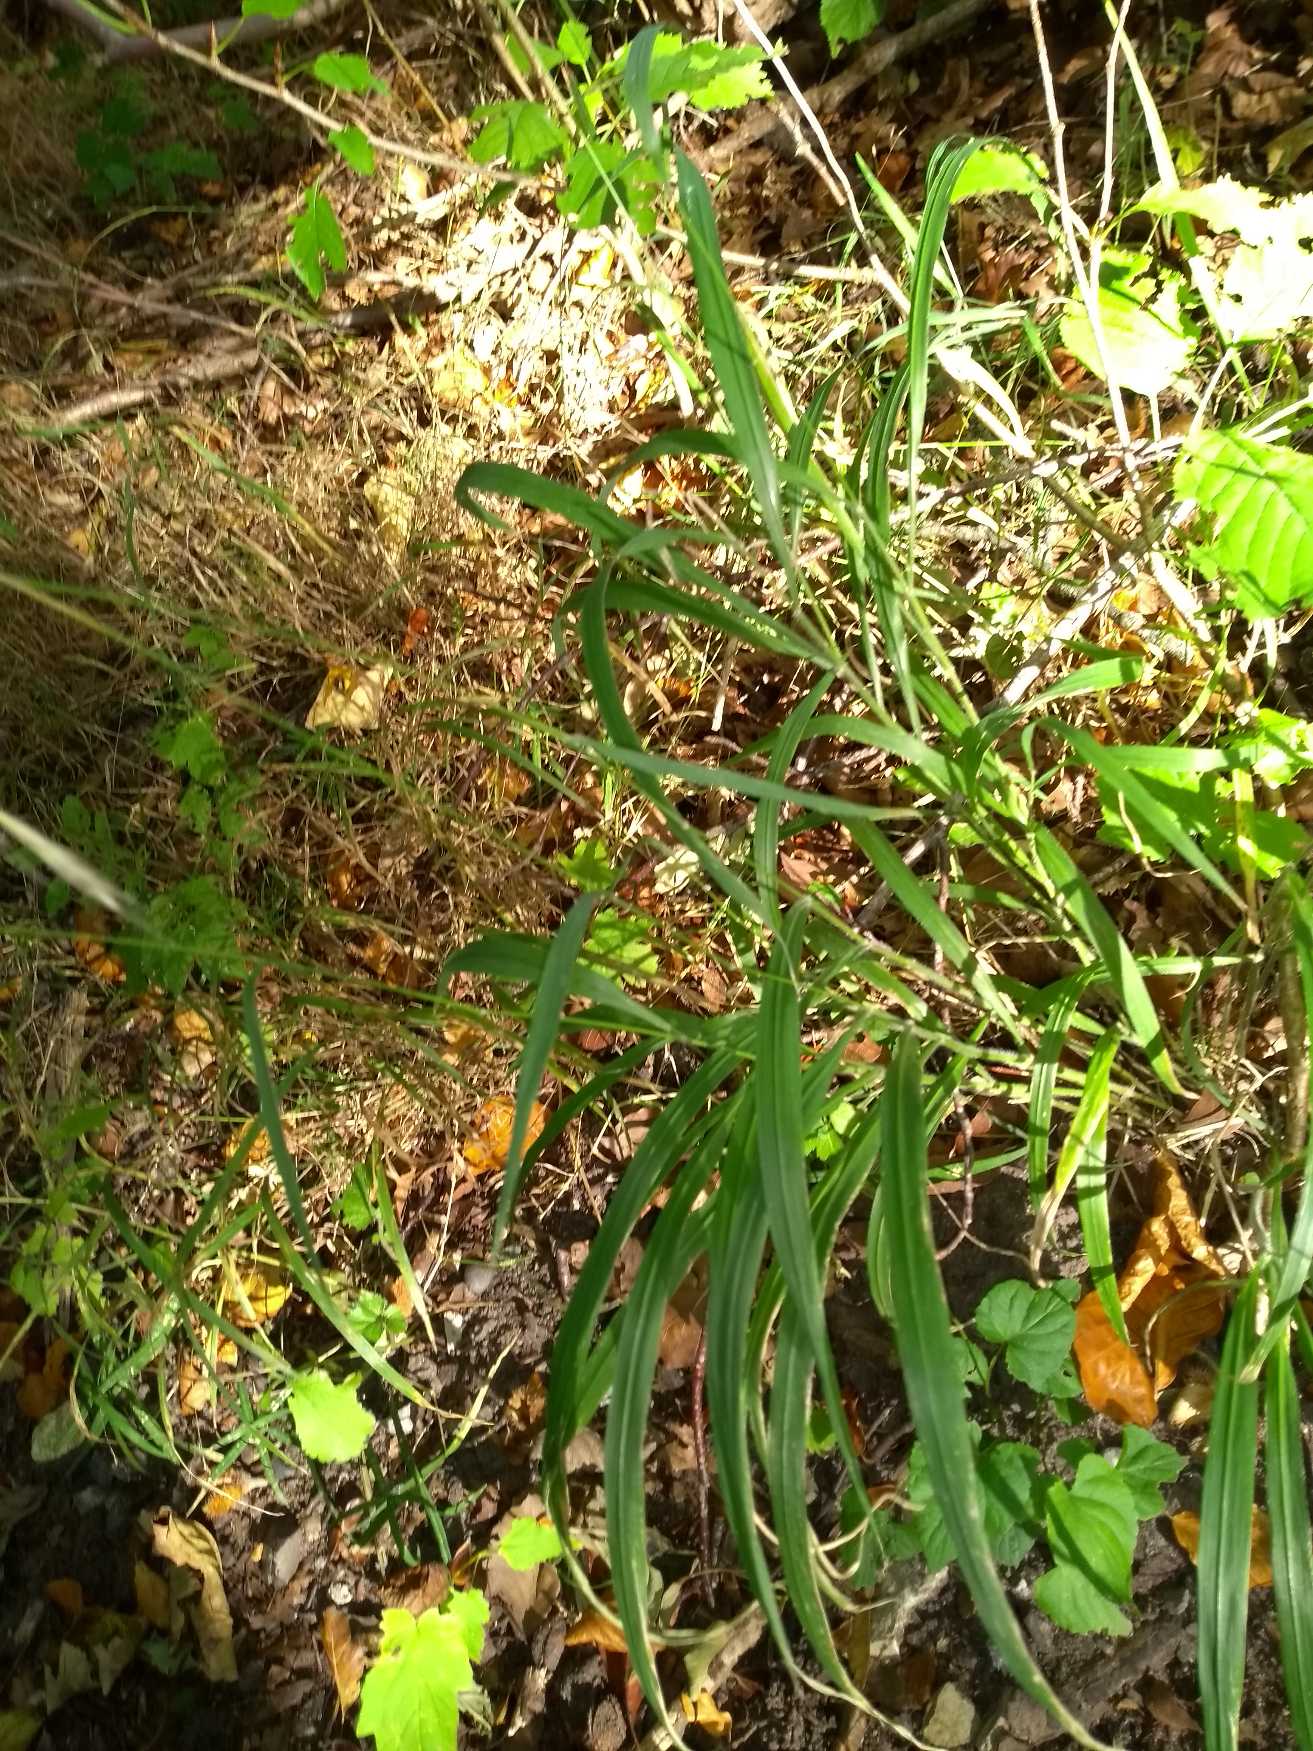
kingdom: Plantae
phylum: Tracheophyta
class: Liliopsida
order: Poales
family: Poaceae
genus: Brachypodium
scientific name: Brachypodium sylvaticum
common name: Skov-stilkaks
